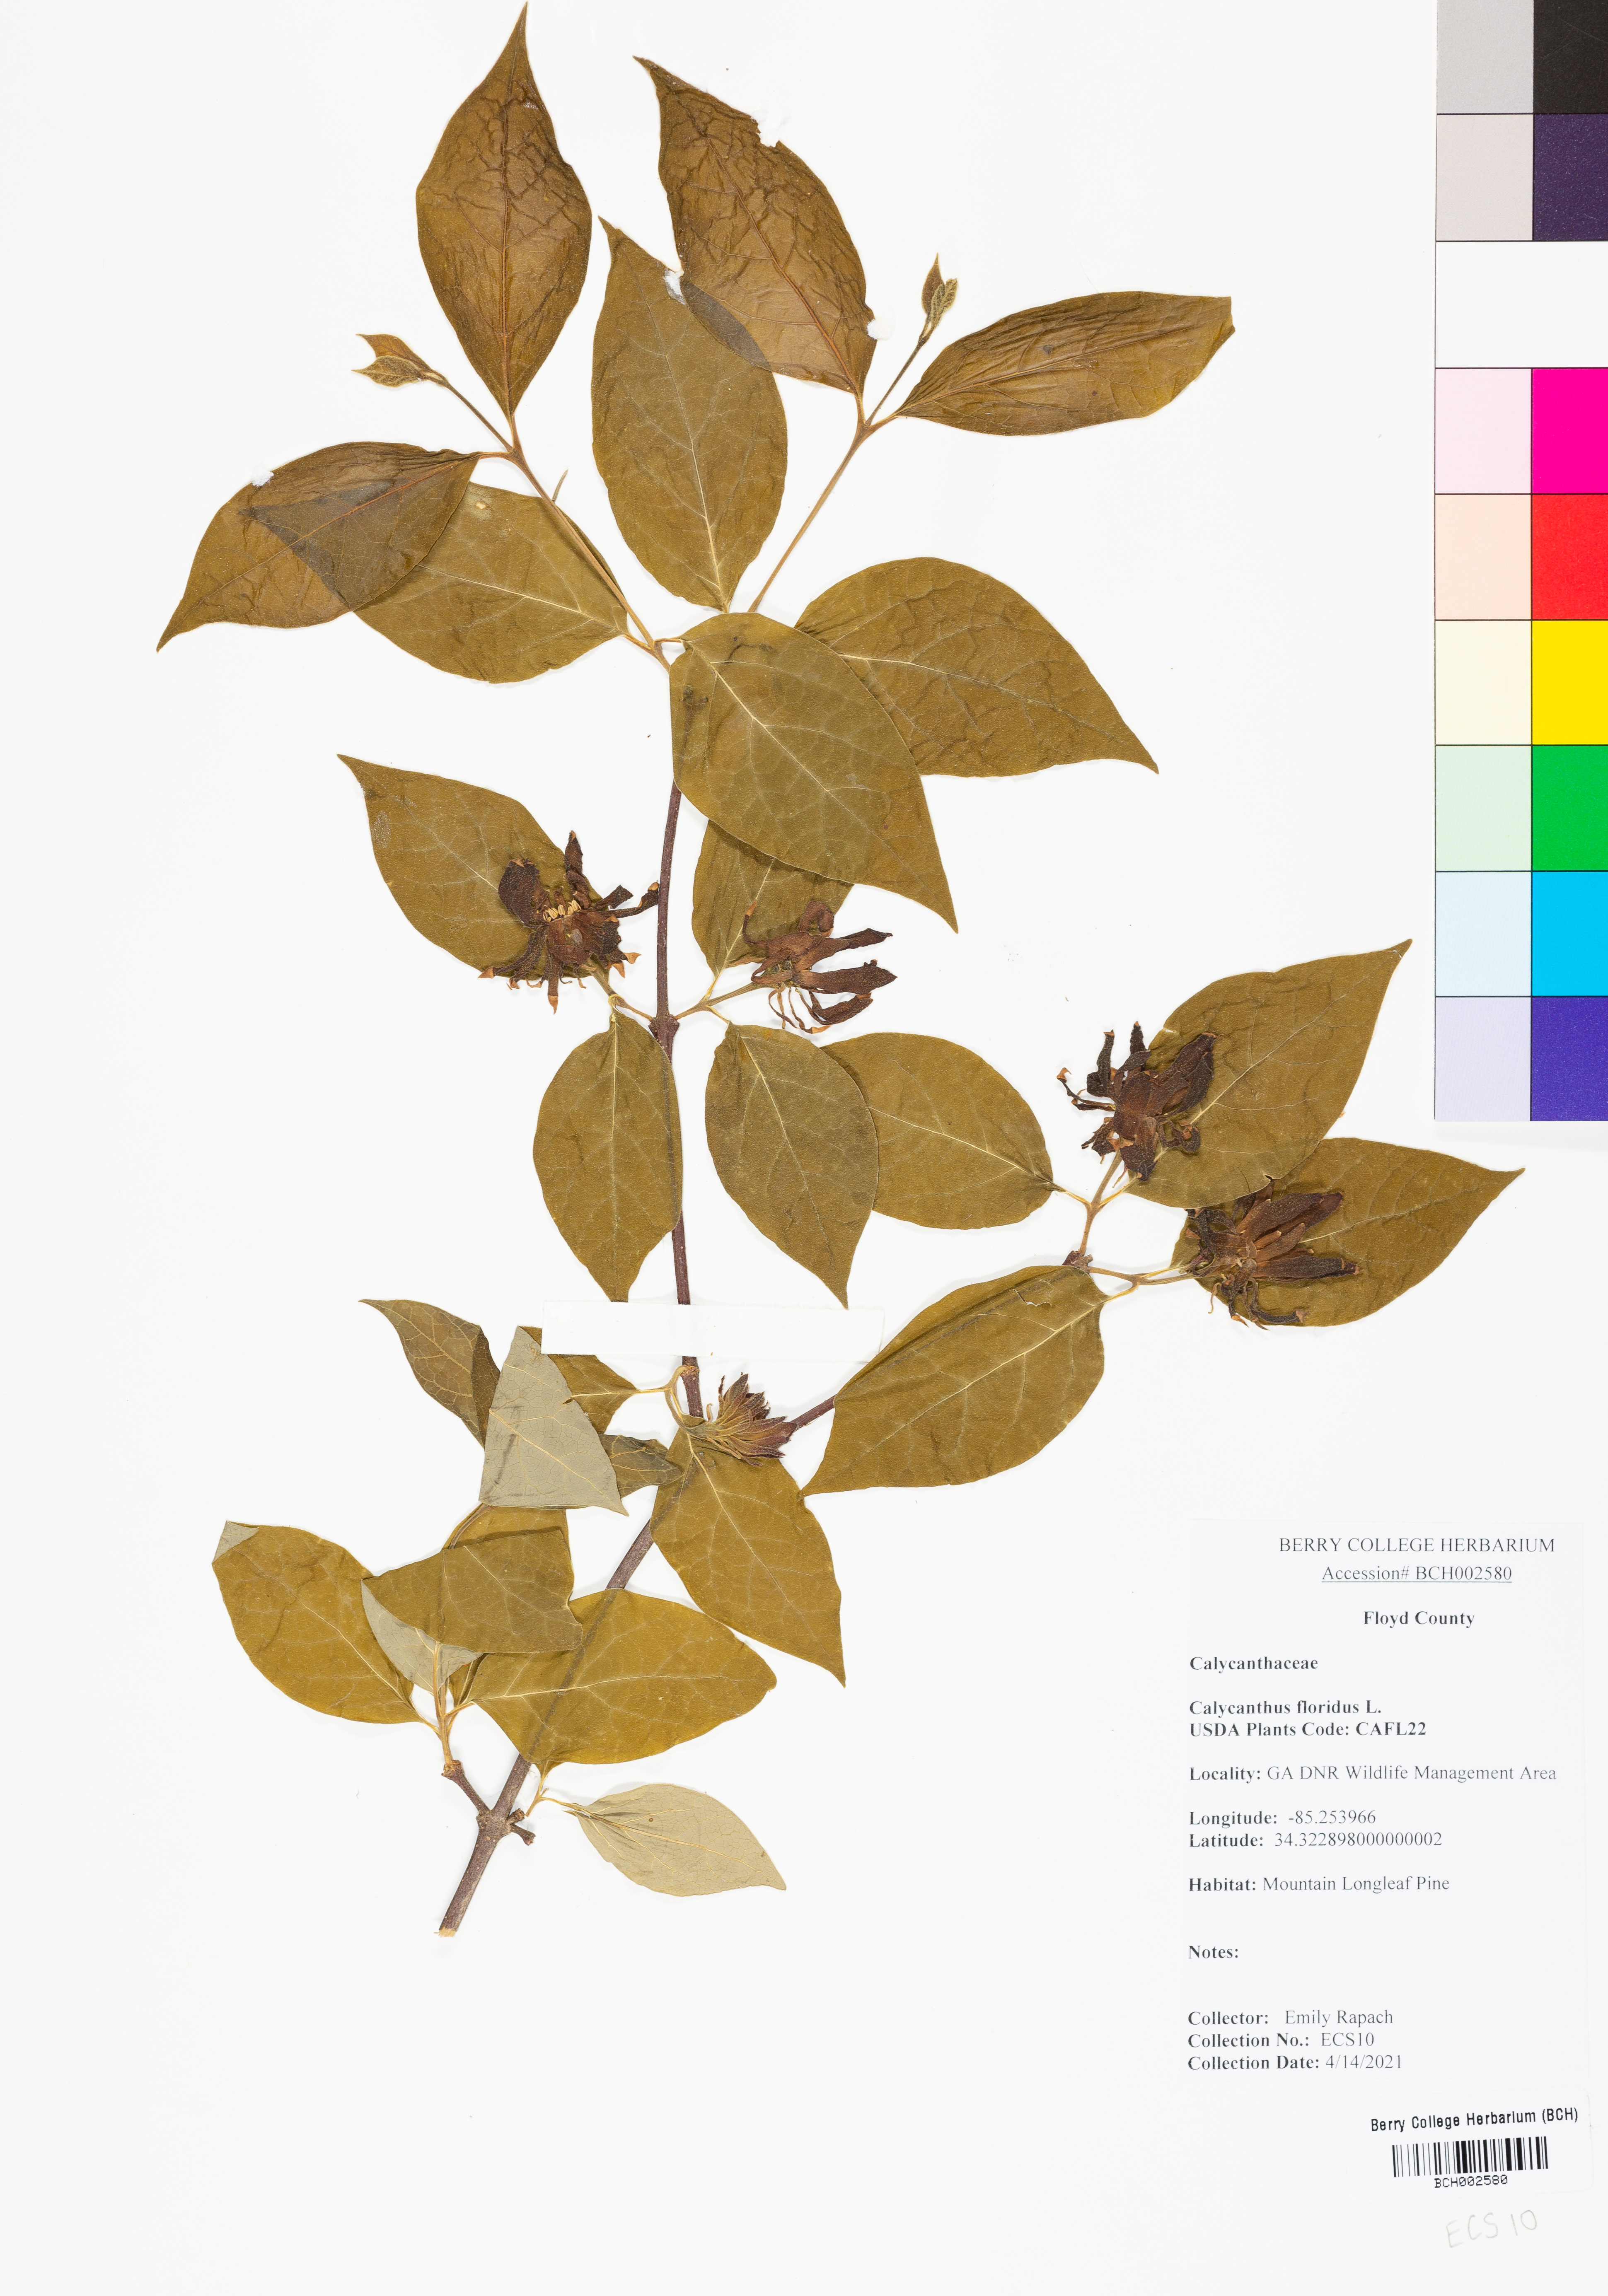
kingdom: Plantae
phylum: Tracheophyta
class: Magnoliopsida
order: Laurales
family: Calycanthaceae
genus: Calycanthus
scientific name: Calycanthus floridus
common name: Carolina-allspice
